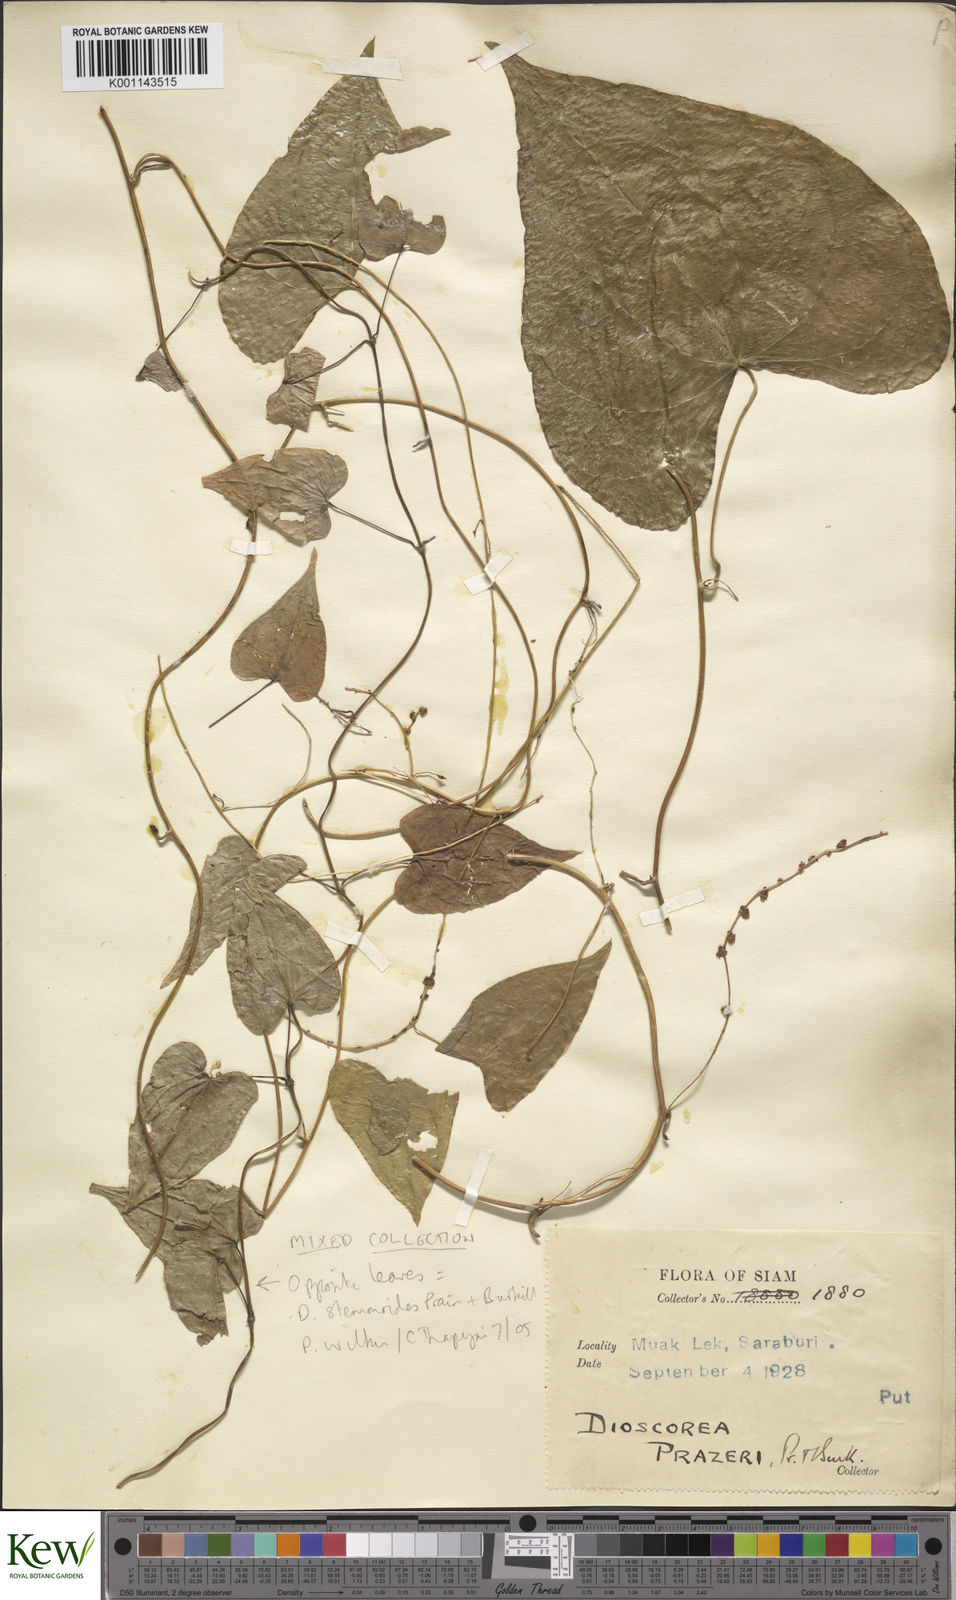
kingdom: Plantae
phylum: Tracheophyta
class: Liliopsida
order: Dioscoreales
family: Dioscoreaceae
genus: Dioscorea
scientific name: Dioscorea prazeri
